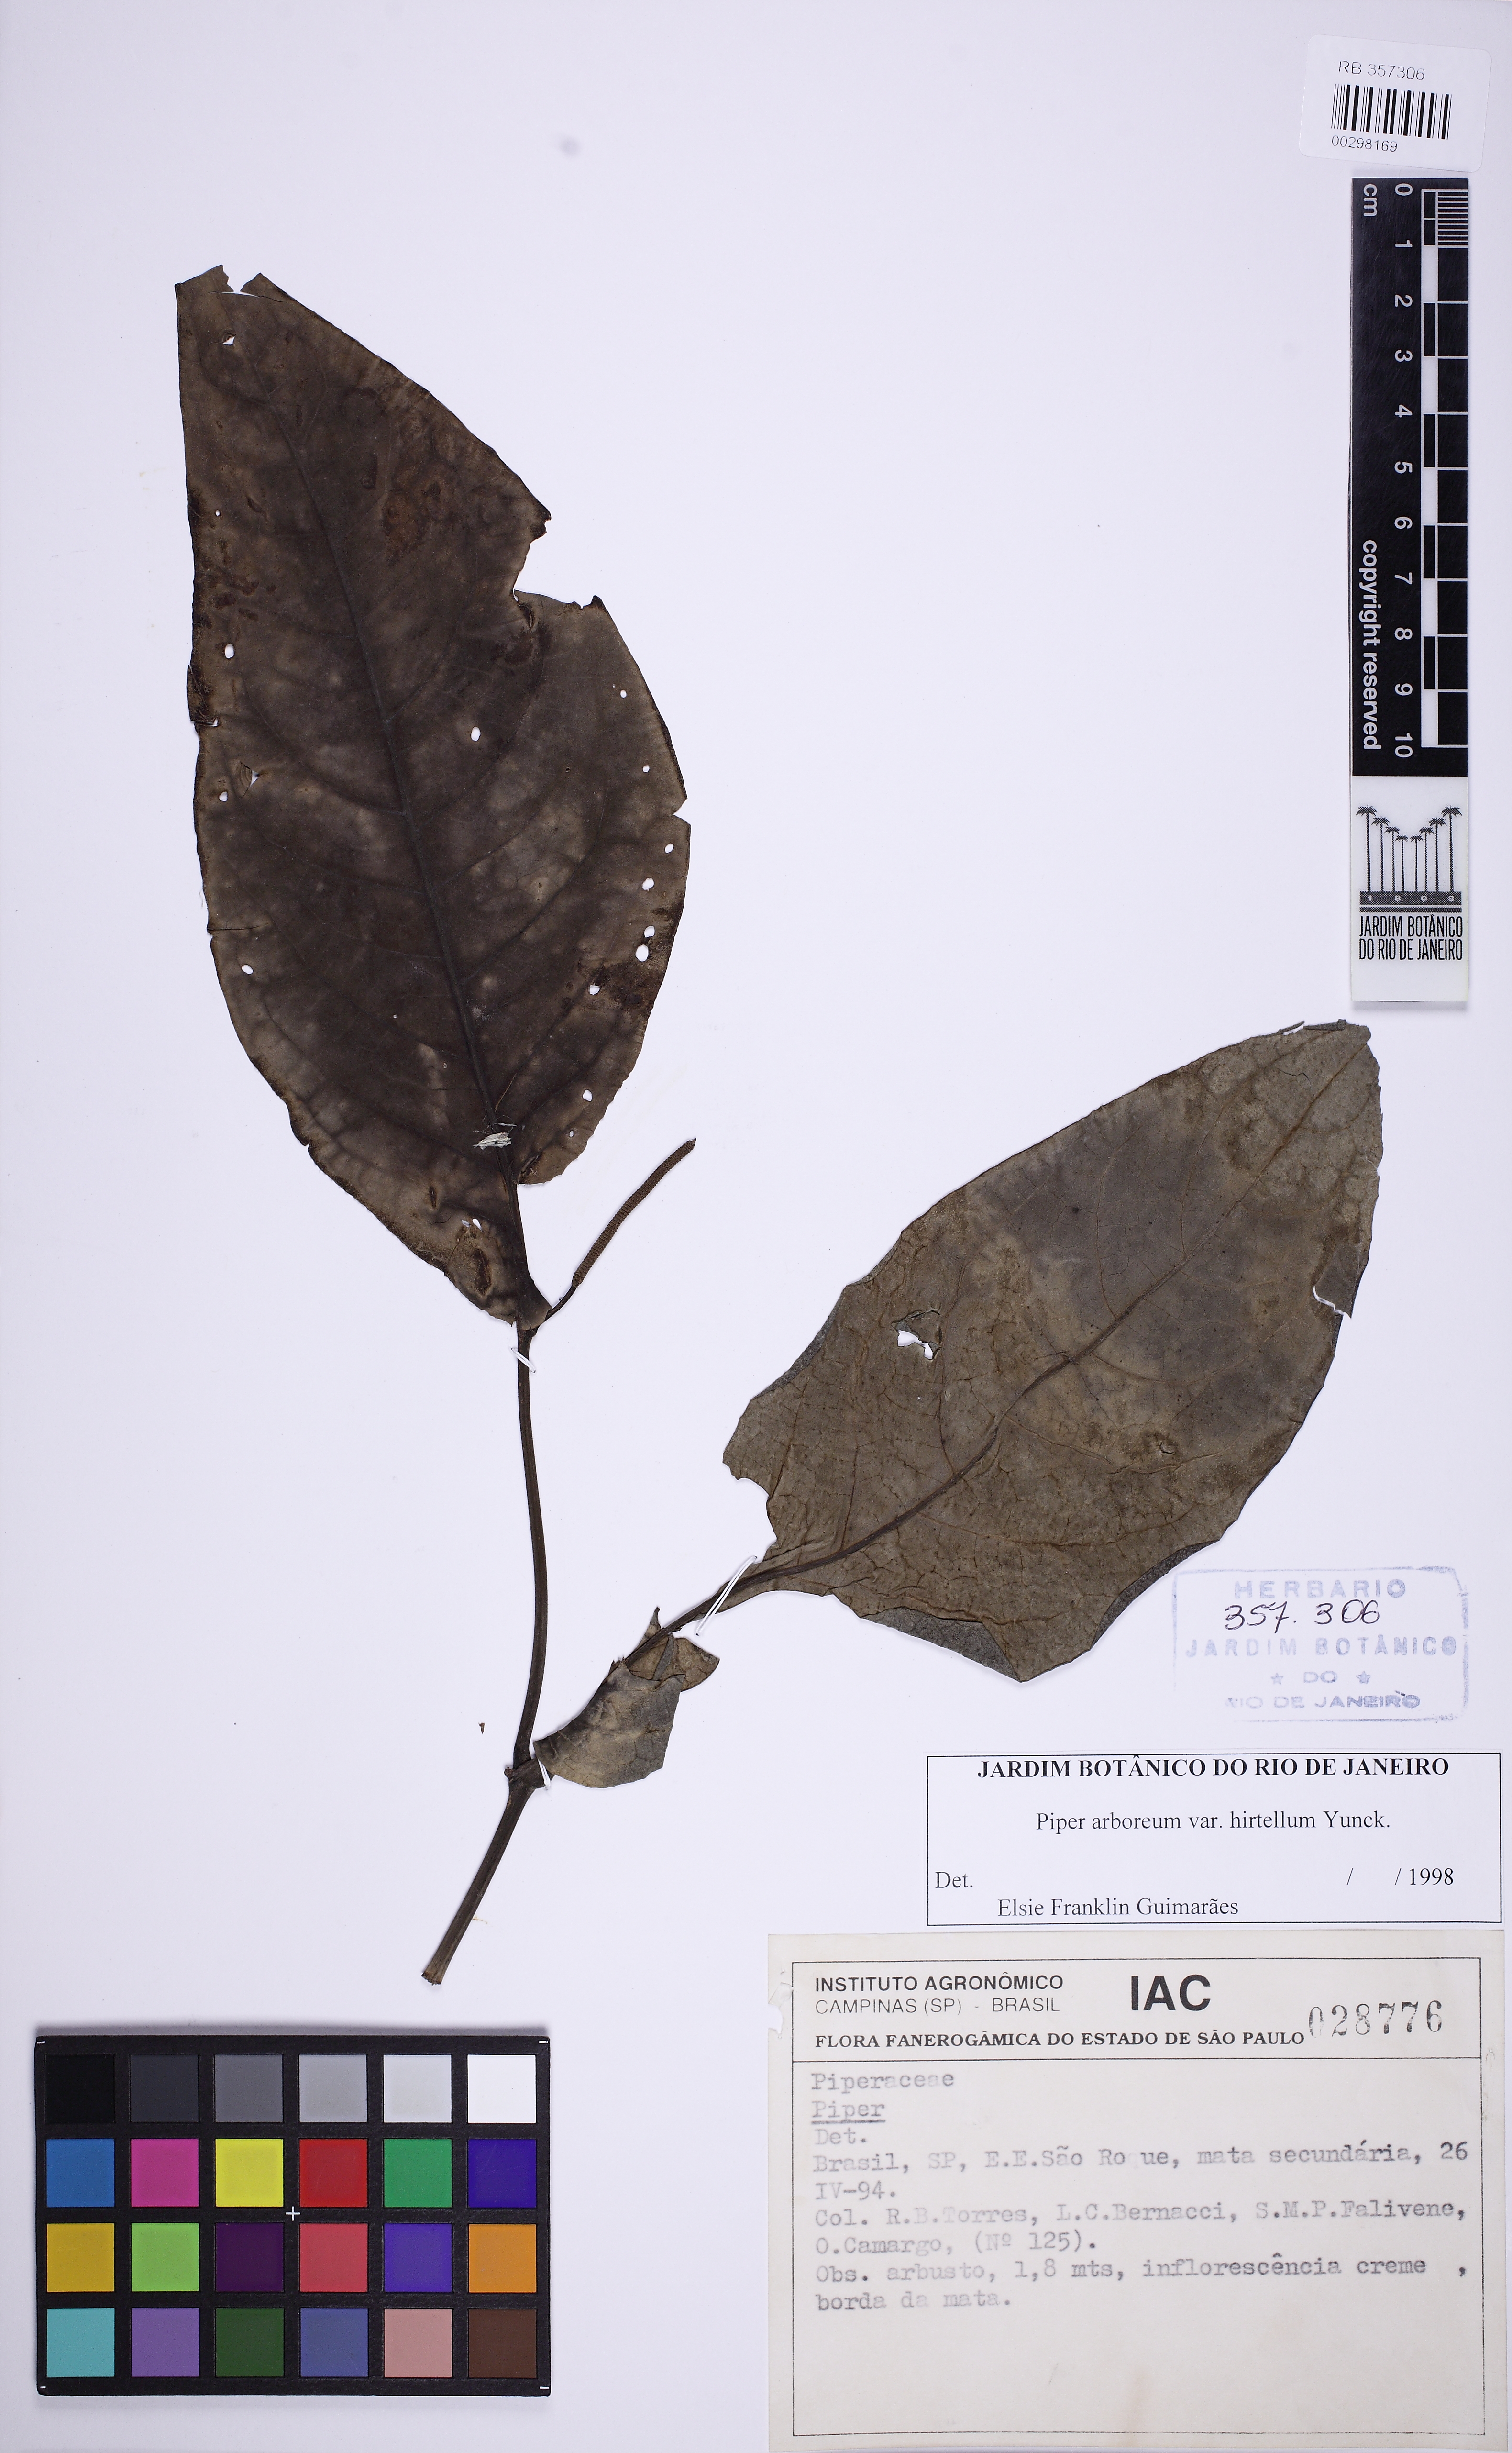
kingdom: Plantae
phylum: Tracheophyta
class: Magnoliopsida
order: Piperales
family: Piperaceae
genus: Piper
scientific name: Piper arboreum
